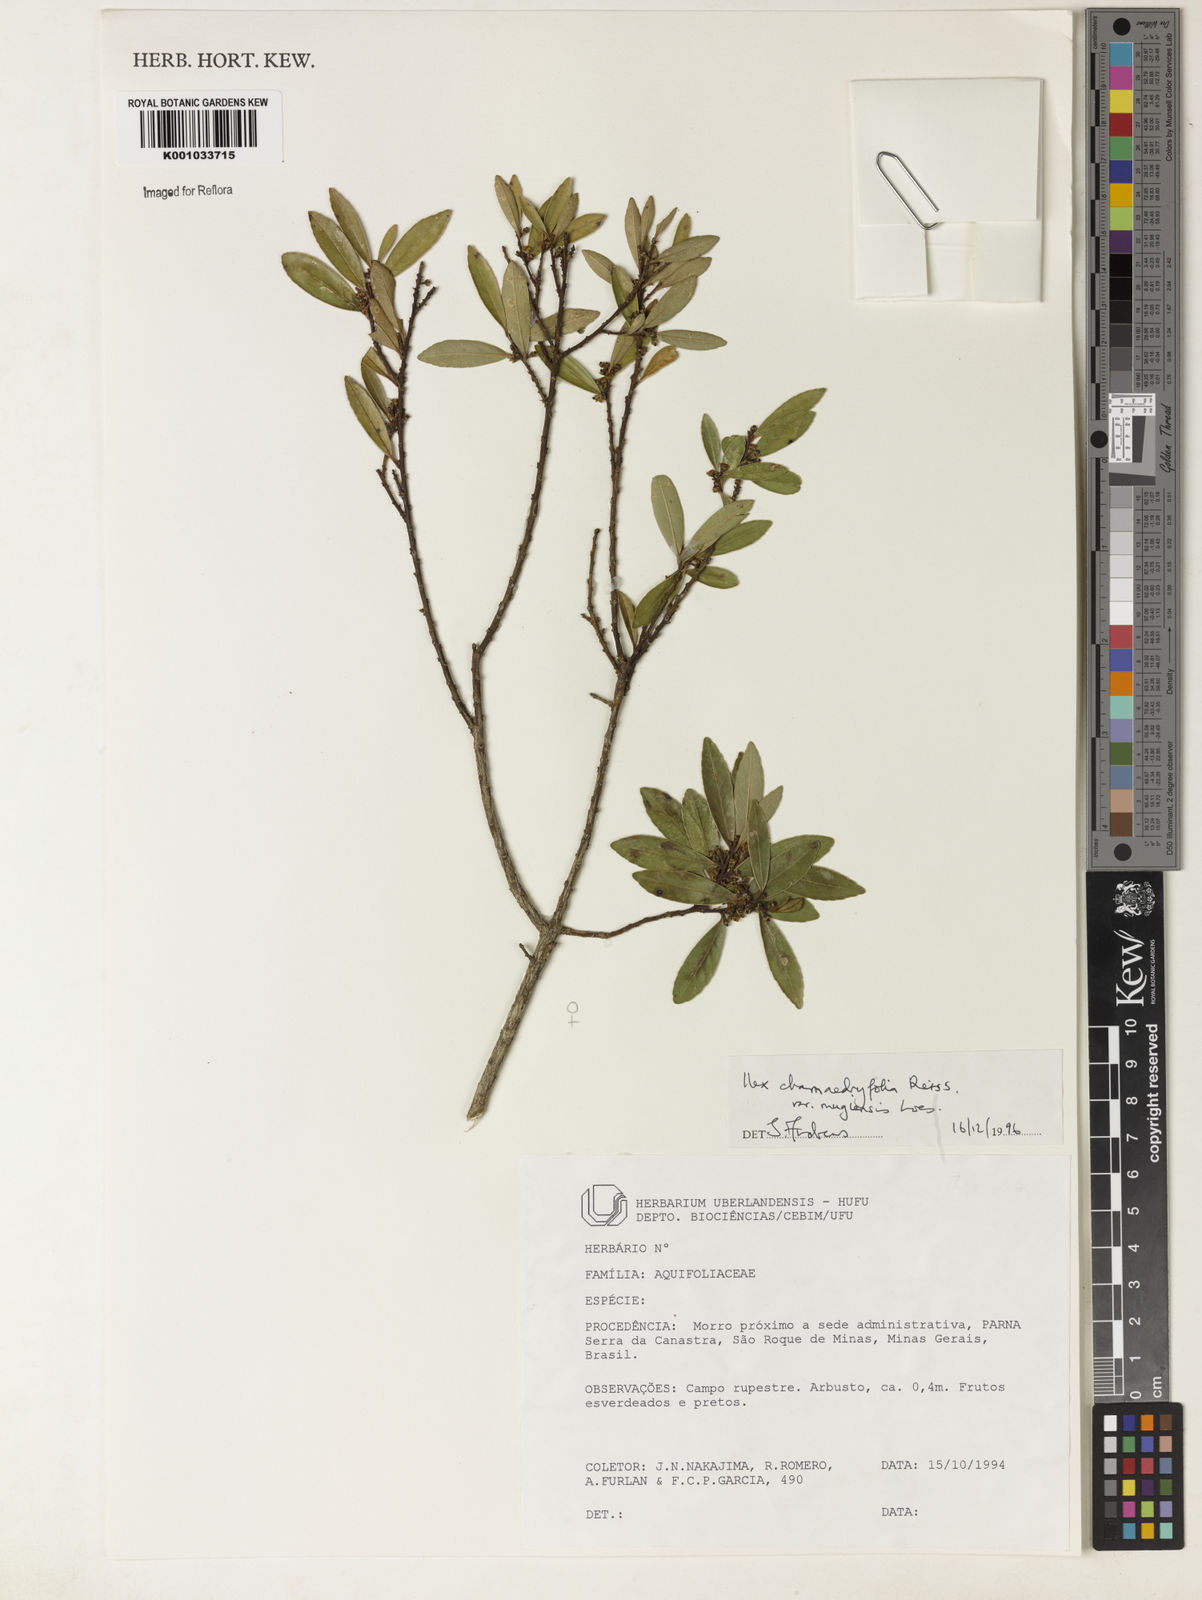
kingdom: Plantae
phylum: Tracheophyta
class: Magnoliopsida
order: Aquifoliales
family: Aquifoliaceae
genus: Ilex
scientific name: Ilex chamaedryfolia
